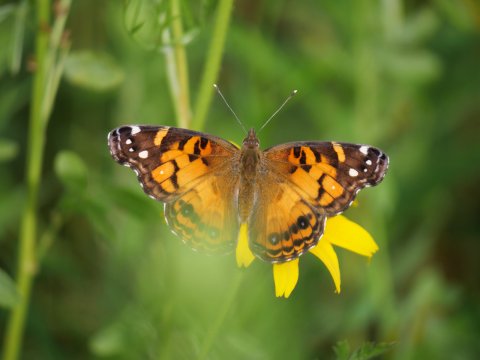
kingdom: Animalia
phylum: Arthropoda
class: Insecta
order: Lepidoptera
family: Nymphalidae
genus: Vanessa
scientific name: Vanessa virginiensis
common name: American Lady
